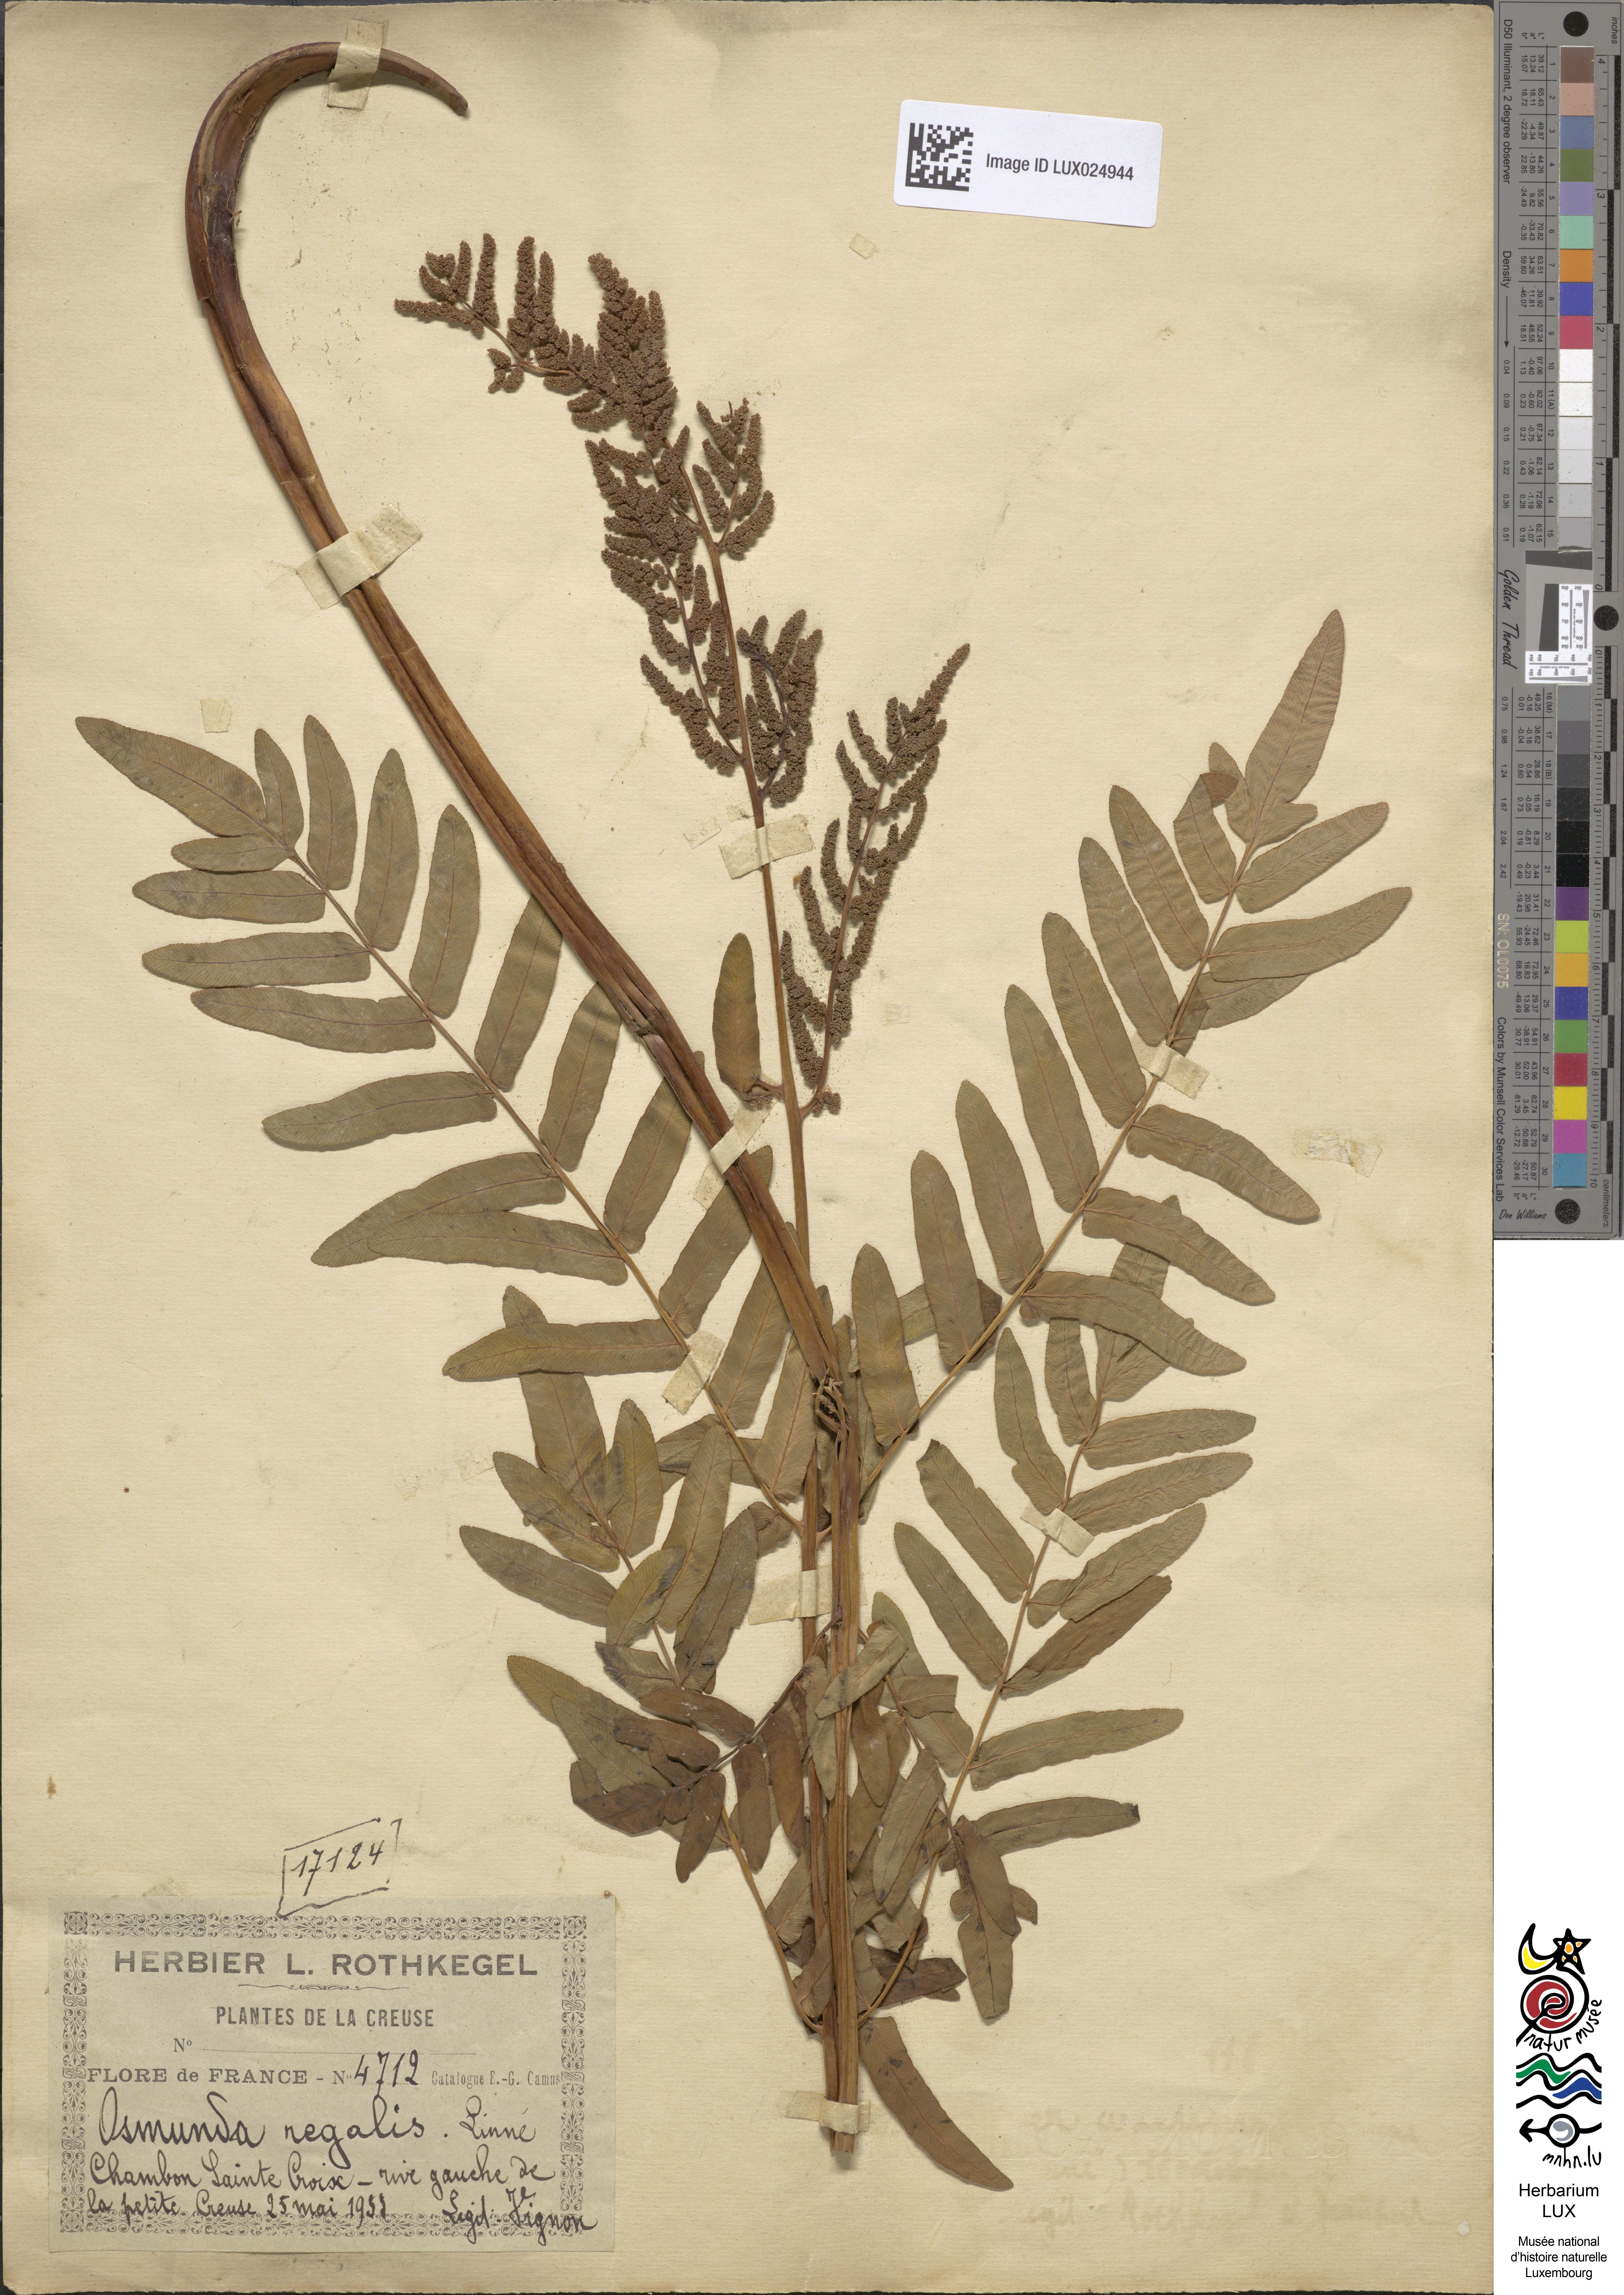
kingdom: Plantae
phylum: Tracheophyta
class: Polypodiopsida
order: Osmundales
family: Osmundaceae
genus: Osmunda
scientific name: Osmunda regalis
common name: Royal fern
